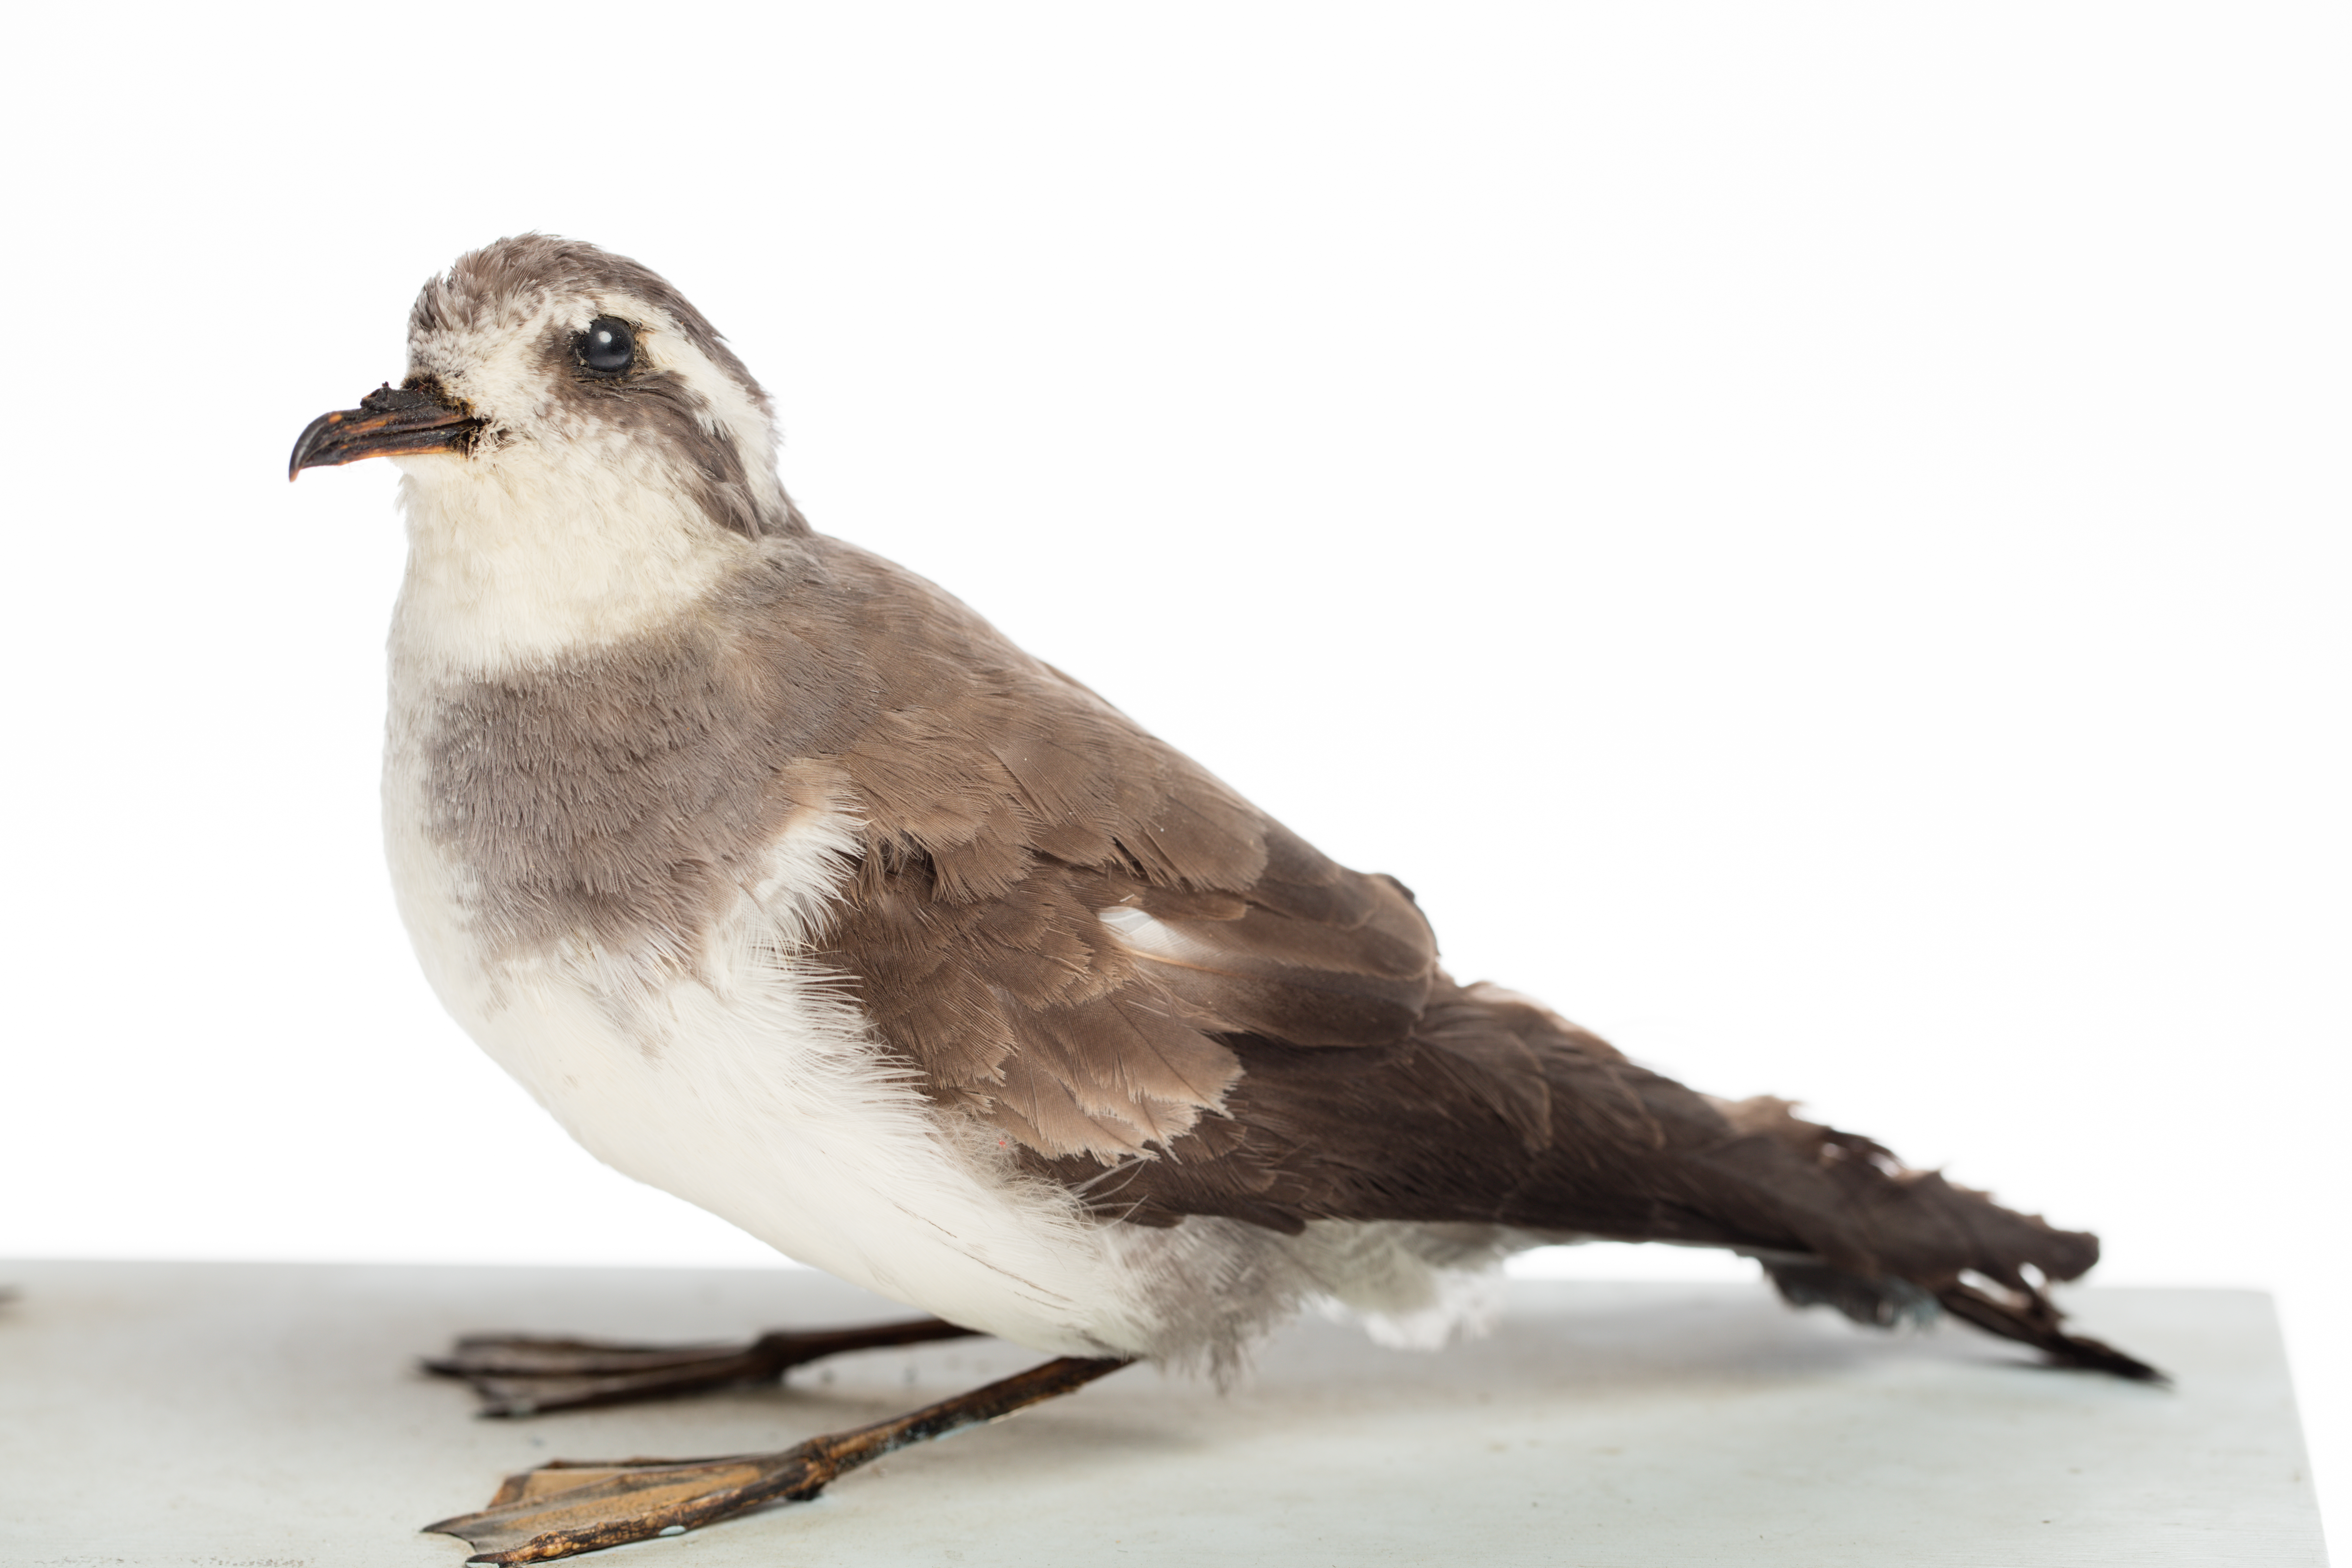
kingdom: Animalia
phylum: Chordata
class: Aves
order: Procellariiformes
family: Hydrobatidae
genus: Pelagodroma
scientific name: Pelagodroma marina
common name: White-faced storm-petrel
